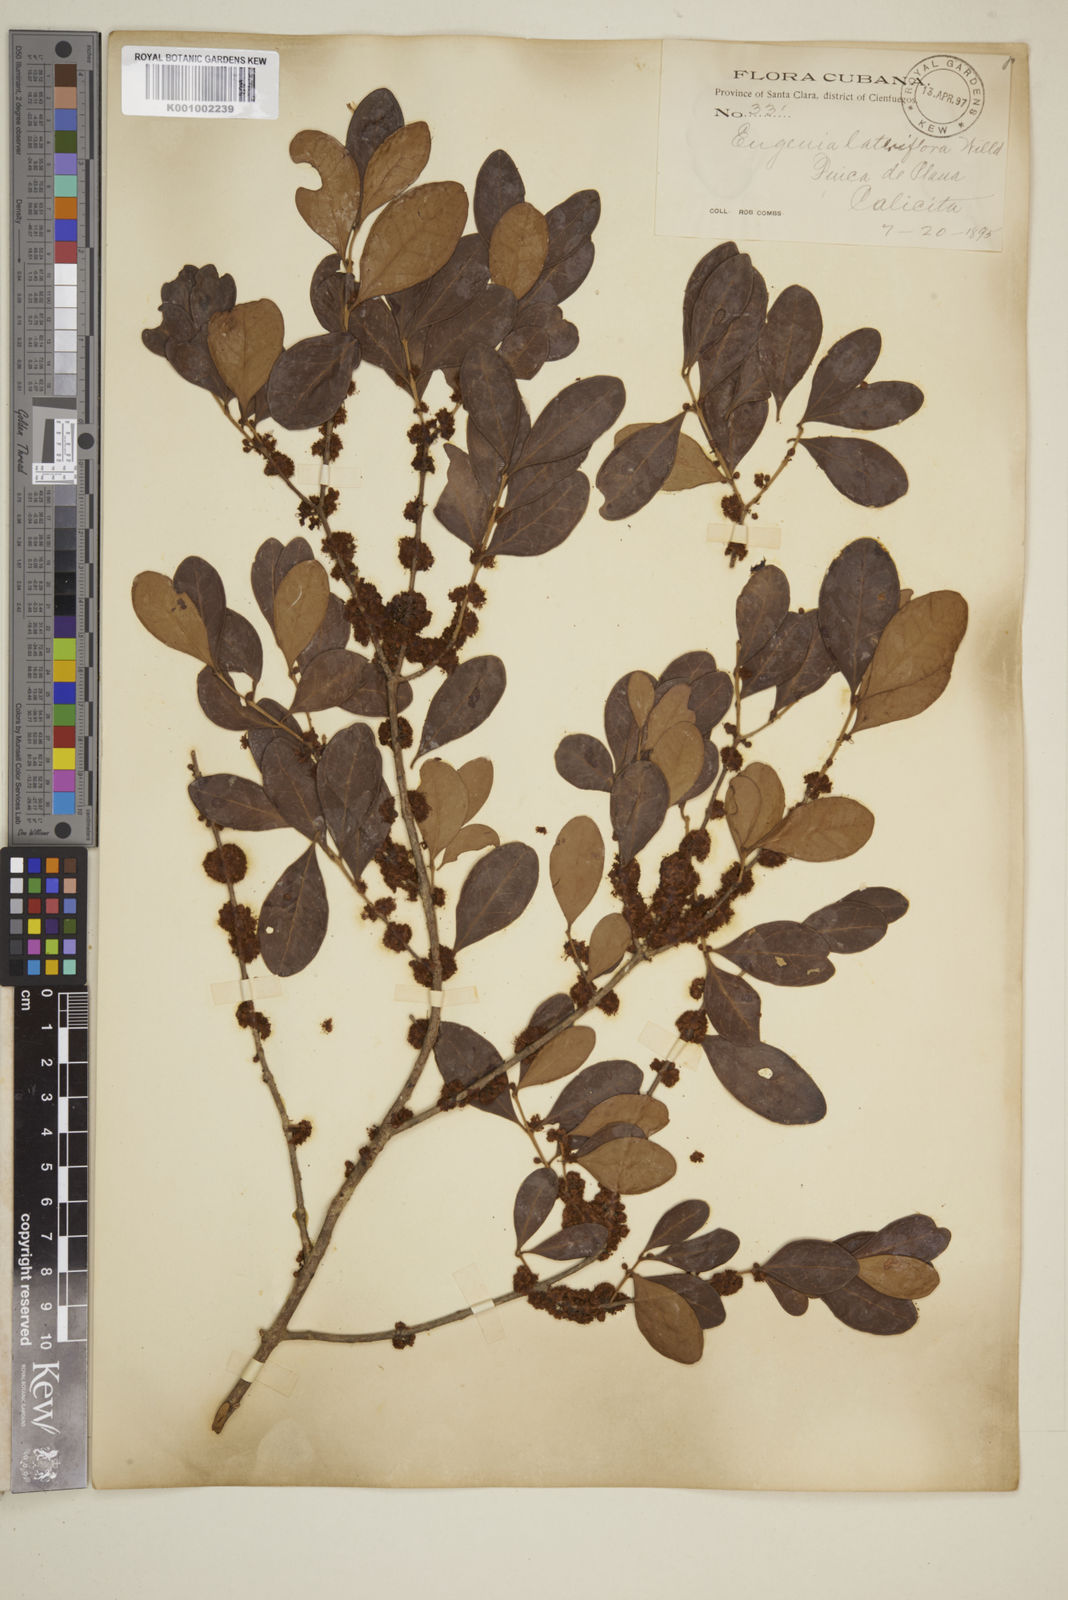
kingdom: Plantae
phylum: Tracheophyta
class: Magnoliopsida
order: Myrtales
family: Myrtaceae
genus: Eugenia
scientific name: Eugenia sessiliflora
